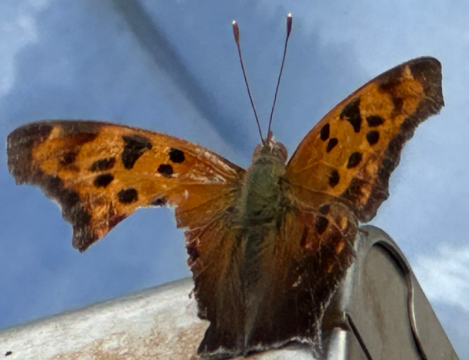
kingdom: Animalia
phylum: Arthropoda
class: Insecta
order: Lepidoptera
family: Nymphalidae
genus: Polygonia
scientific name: Polygonia interrogationis
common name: Question Mark
